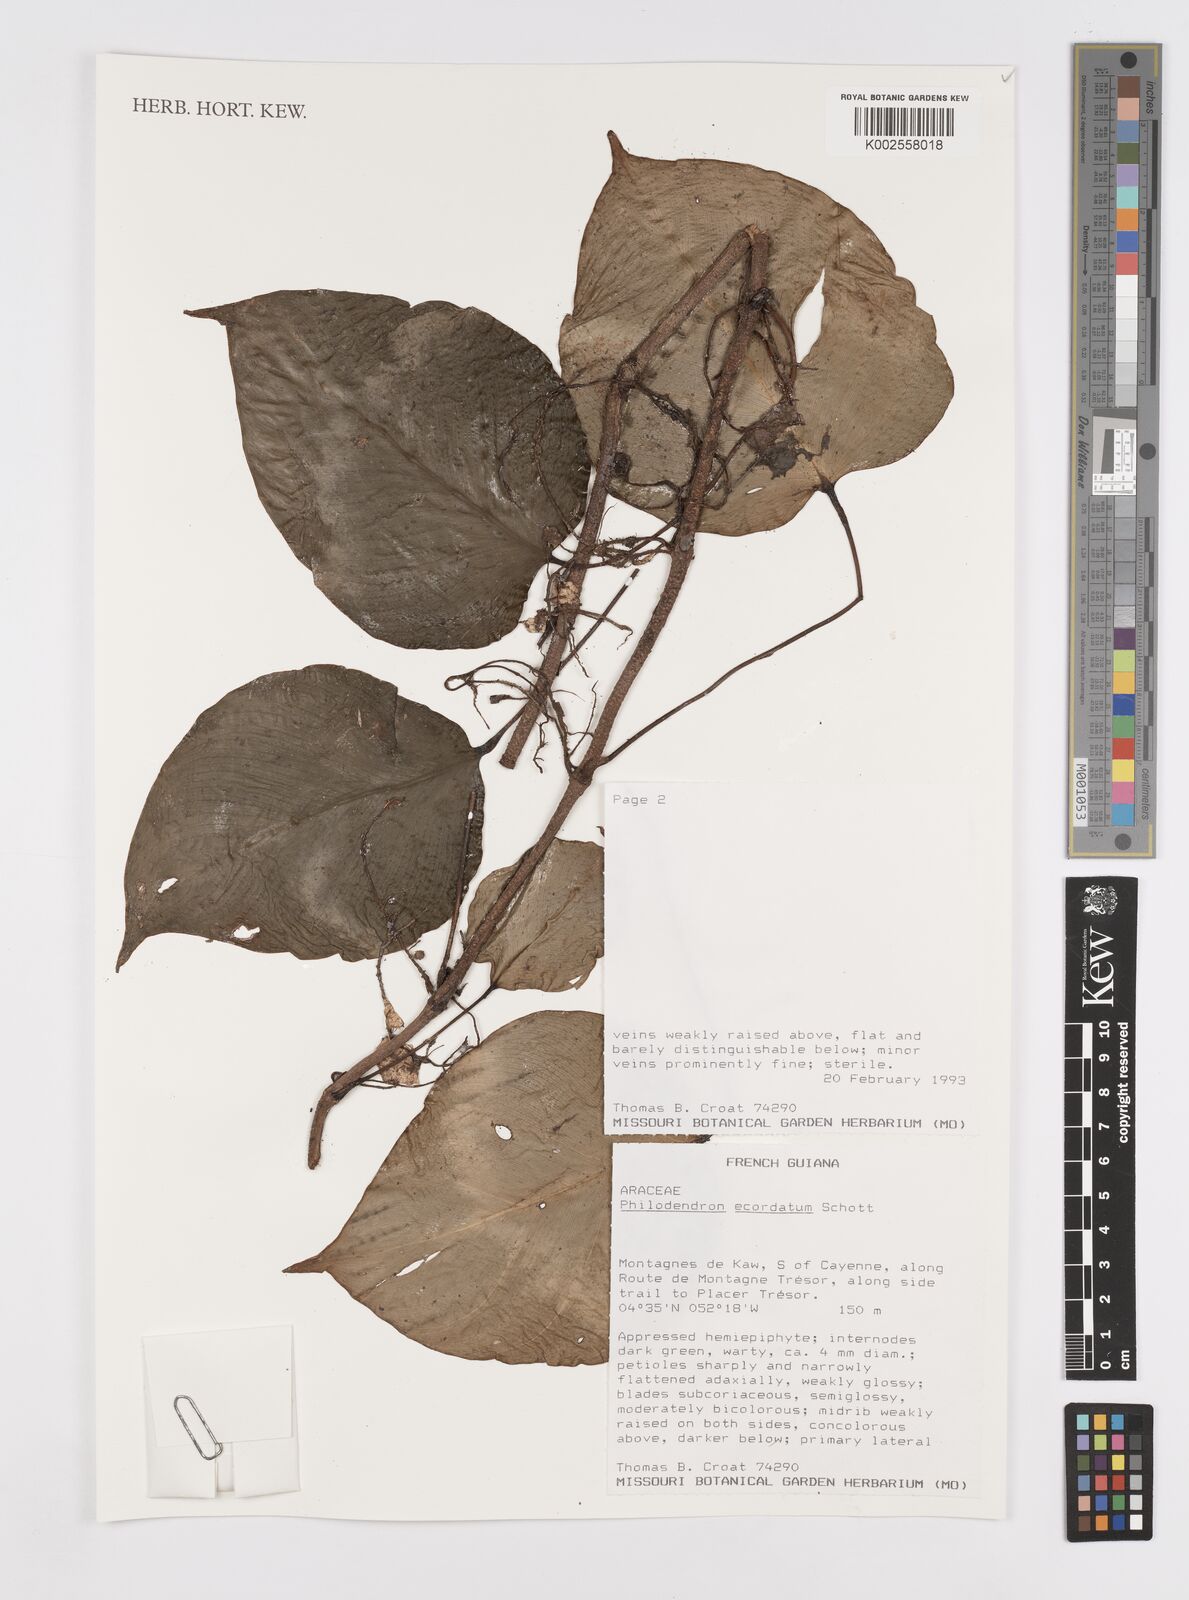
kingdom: Plantae
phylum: Tracheophyta
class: Liliopsida
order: Alismatales
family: Araceae
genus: Philodendron
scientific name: Philodendron ecordatum
